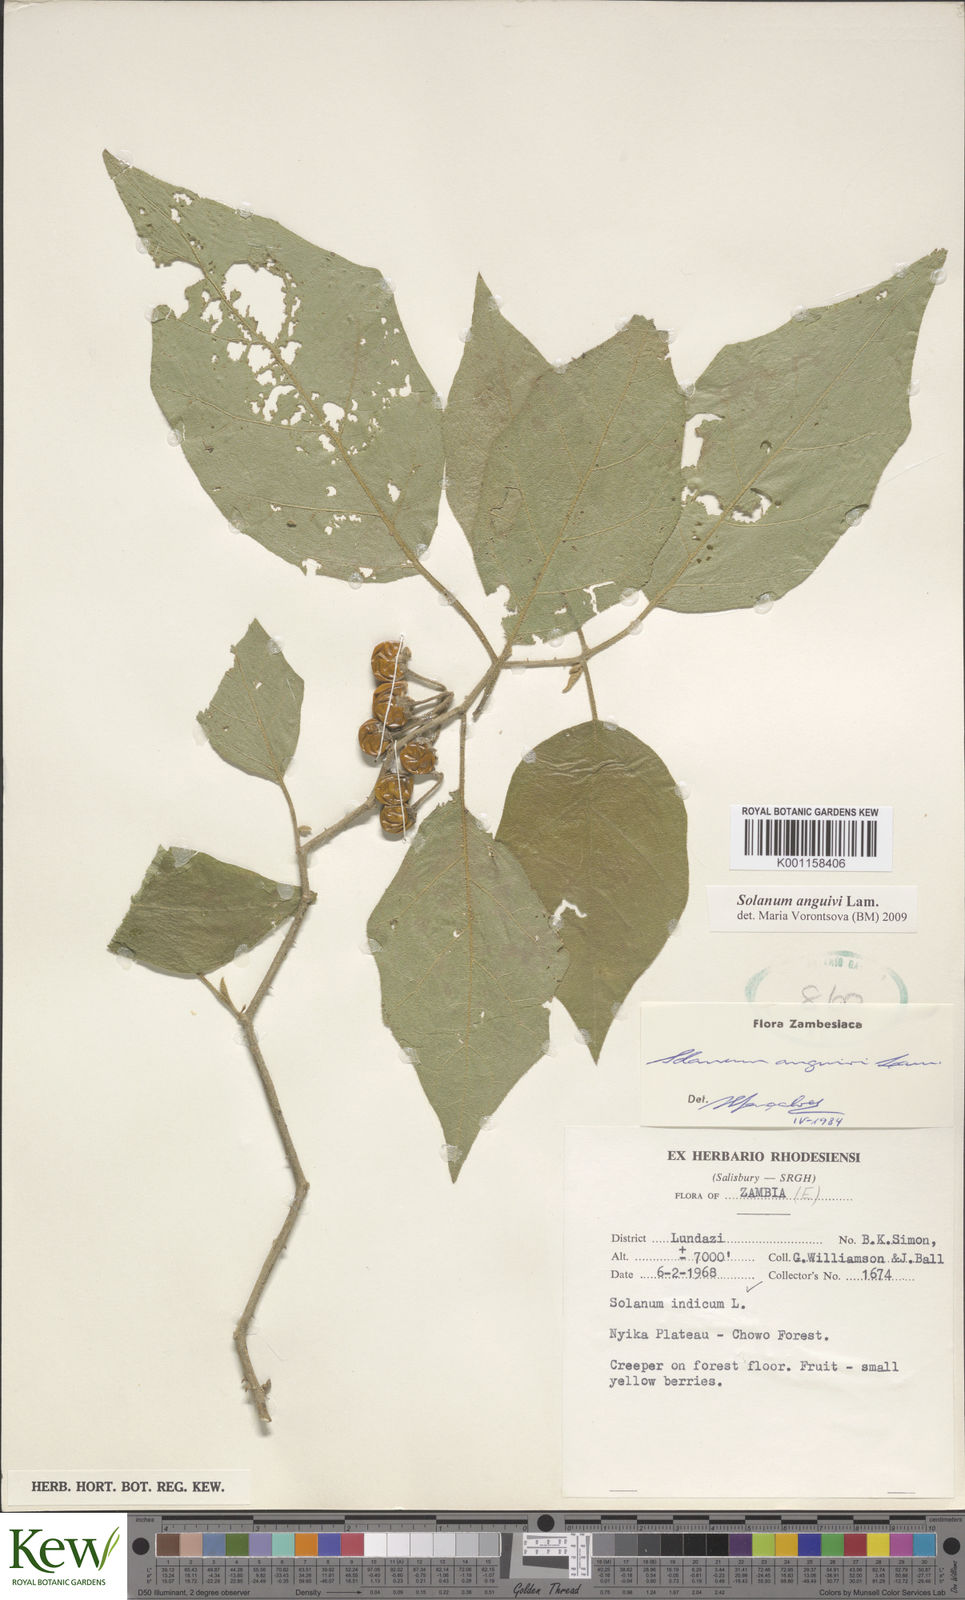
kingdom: Plantae
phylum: Tracheophyta
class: Magnoliopsida
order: Solanales
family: Solanaceae
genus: Solanum
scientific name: Solanum anguivi
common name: Forest bitterberry
